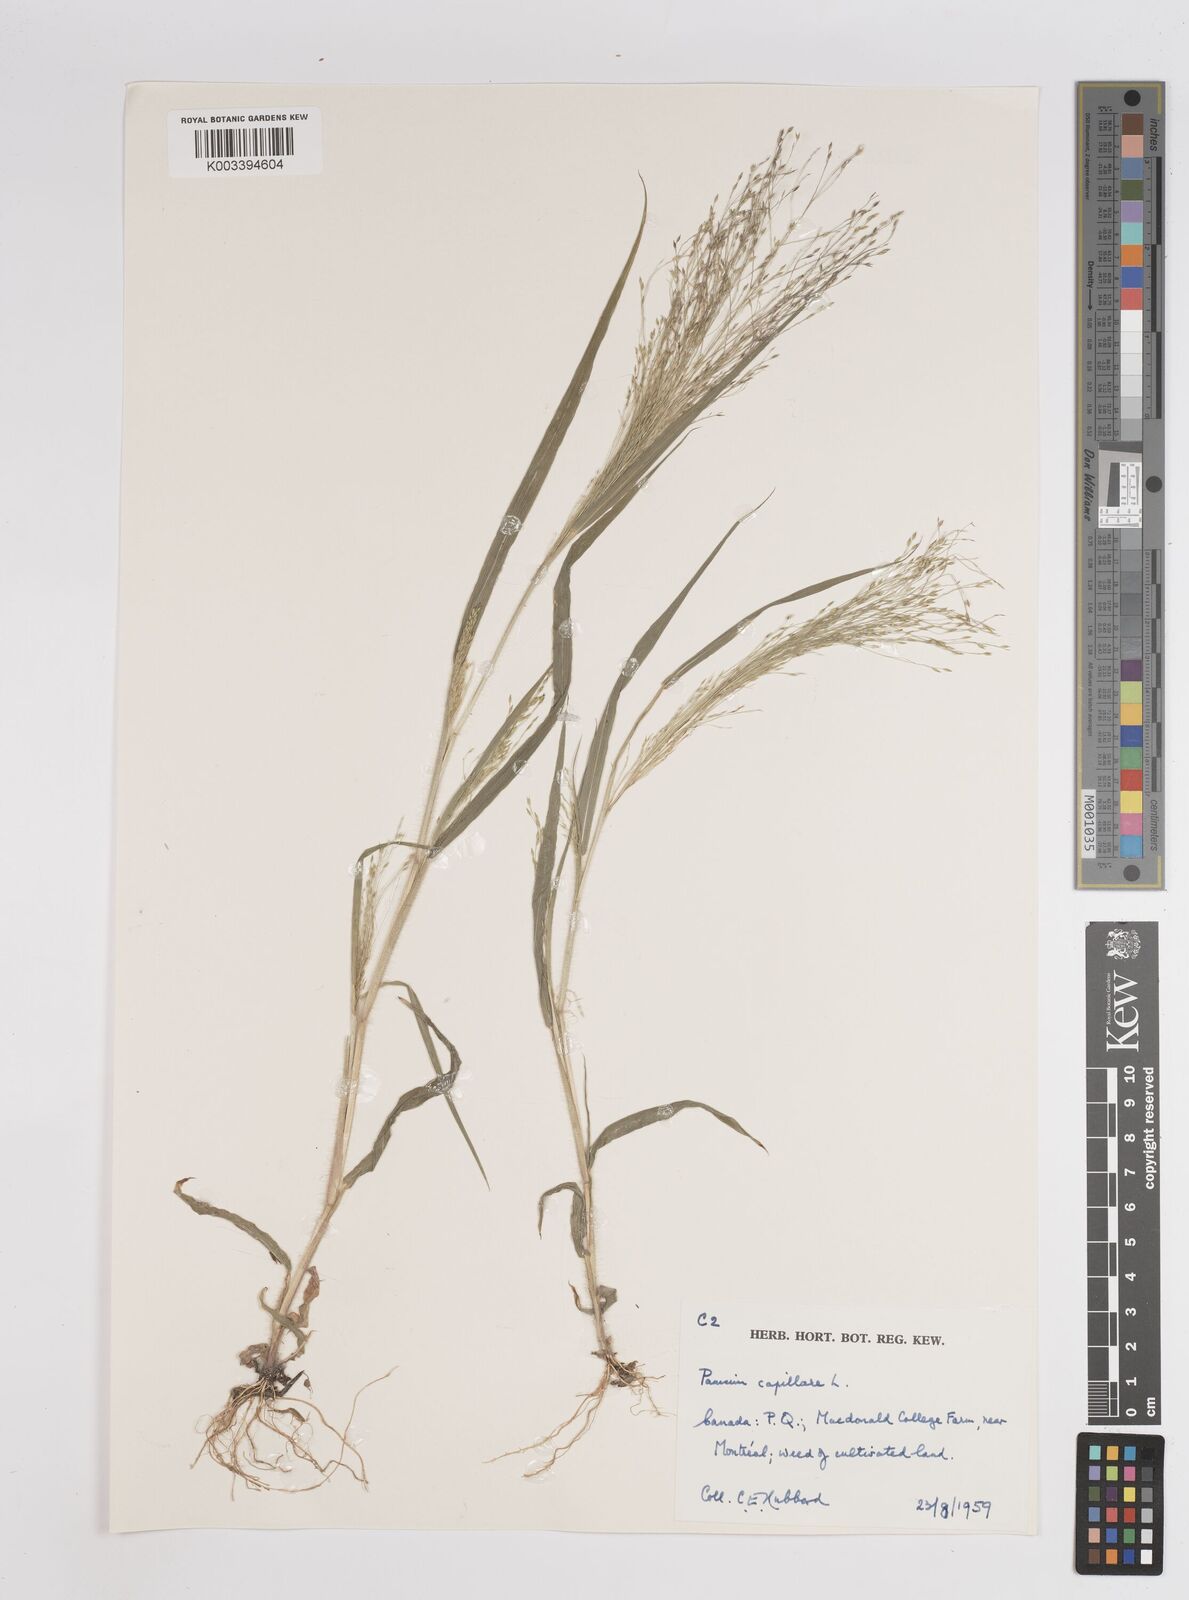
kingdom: Plantae
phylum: Tracheophyta
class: Liliopsida
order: Poales
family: Poaceae
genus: Panicum
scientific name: Panicum capillare
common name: Witch-grass
